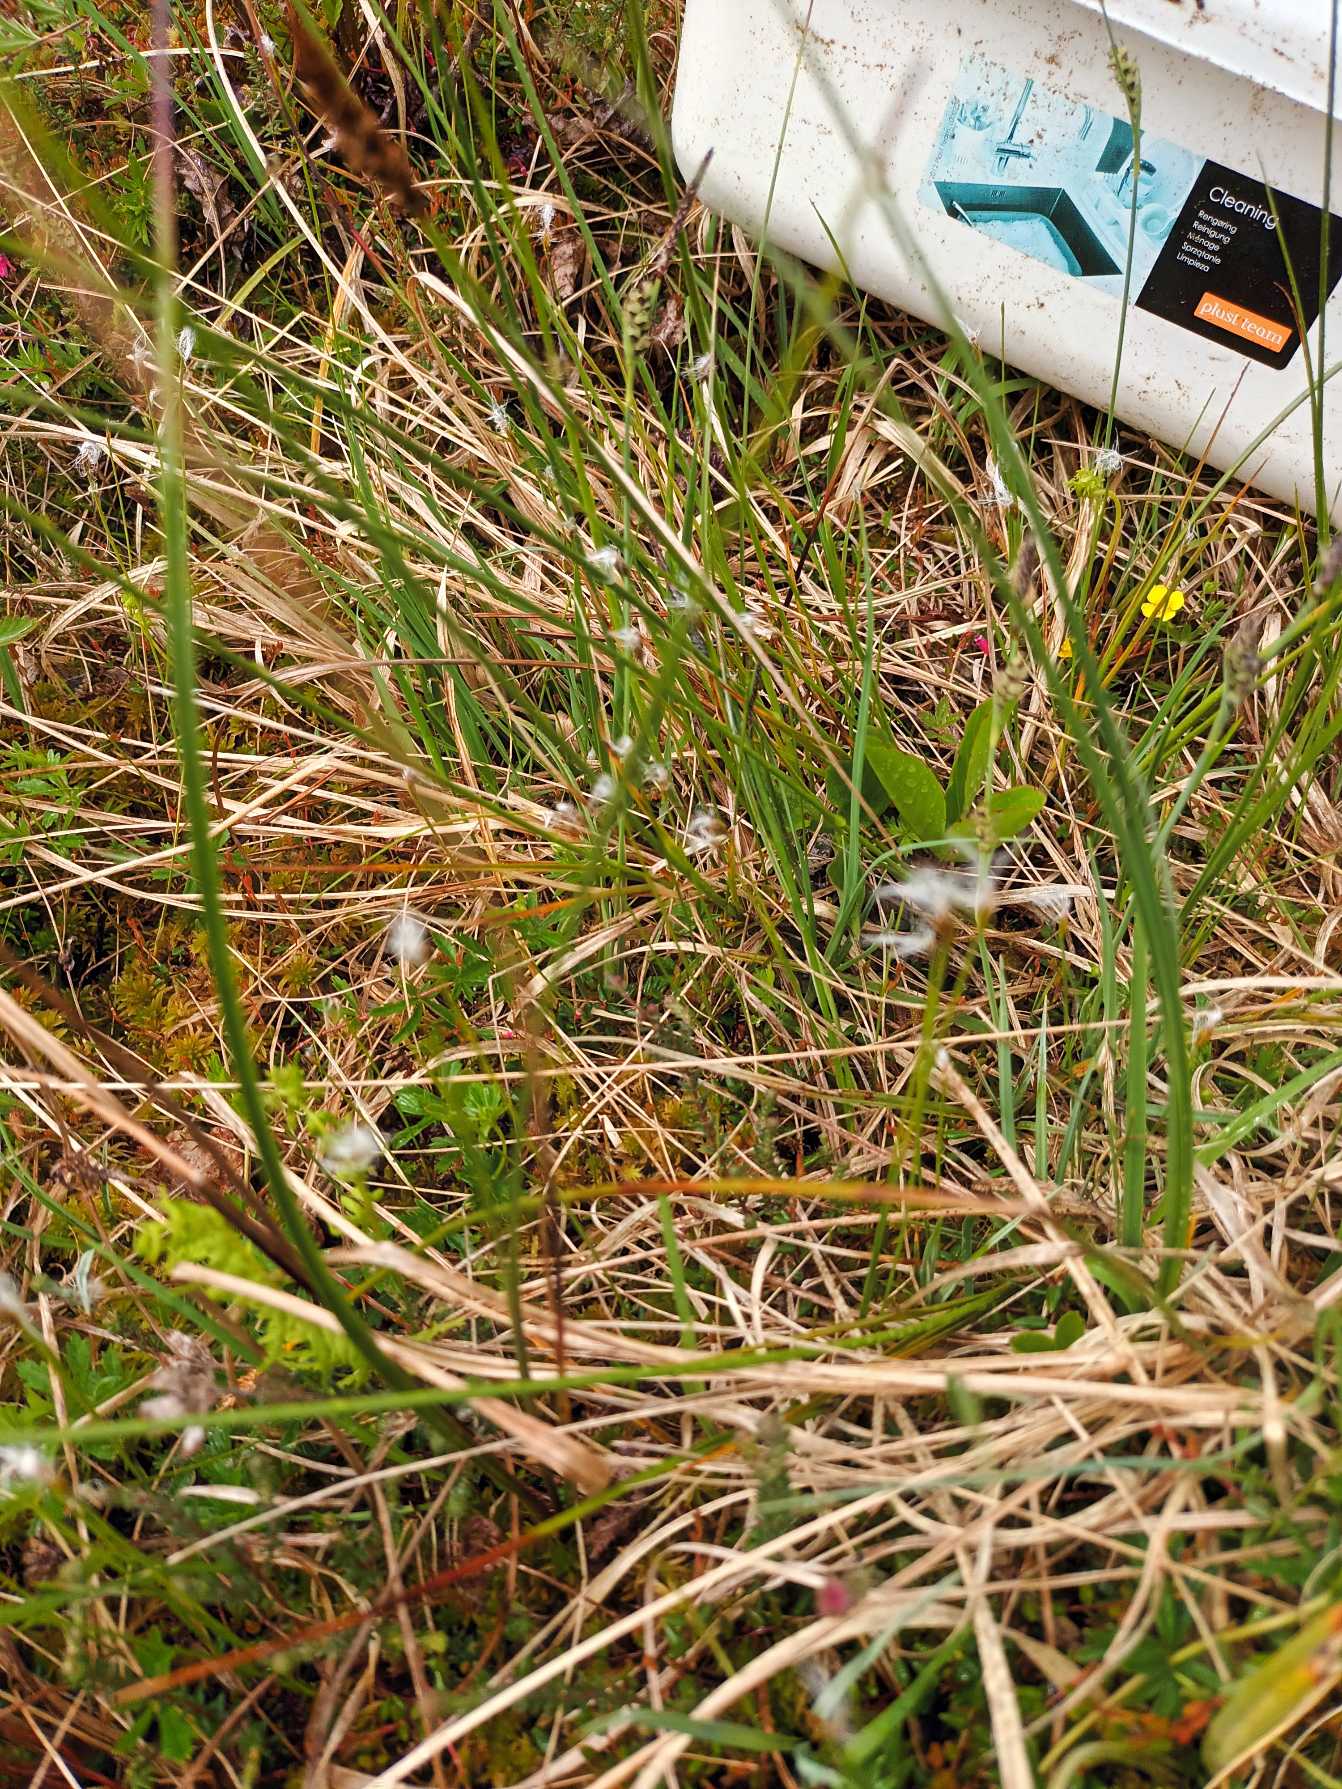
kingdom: Plantae
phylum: Tracheophyta
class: Liliopsida
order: Poales
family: Cyperaceae
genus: Trichophorum
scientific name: Trichophorum alpinum
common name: Liden kæruld
